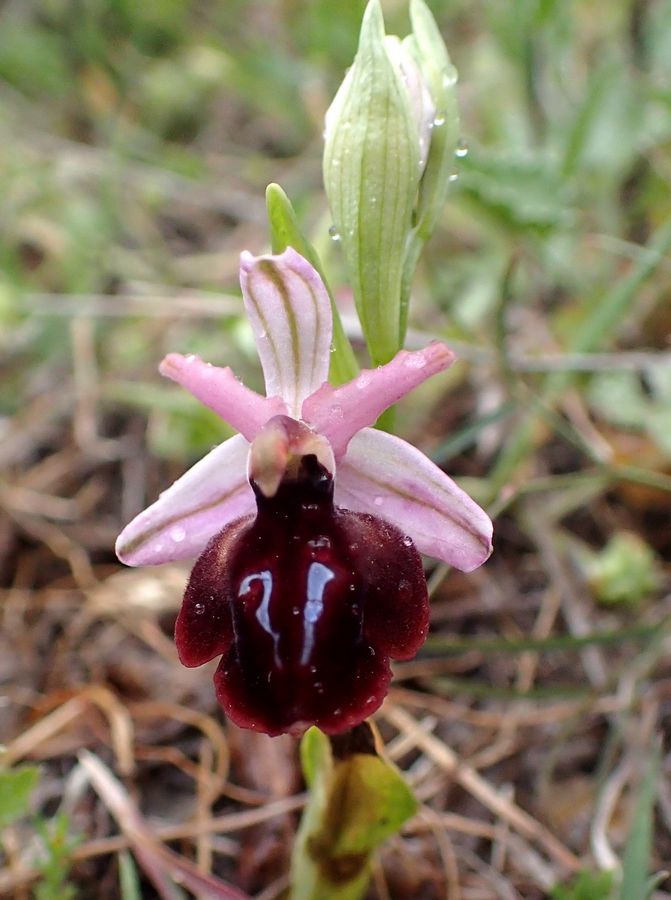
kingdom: Plantae
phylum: Tracheophyta
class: Liliopsida
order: Asparagales
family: Orchidaceae
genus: Ophrys
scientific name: Ophrys sphegodes
